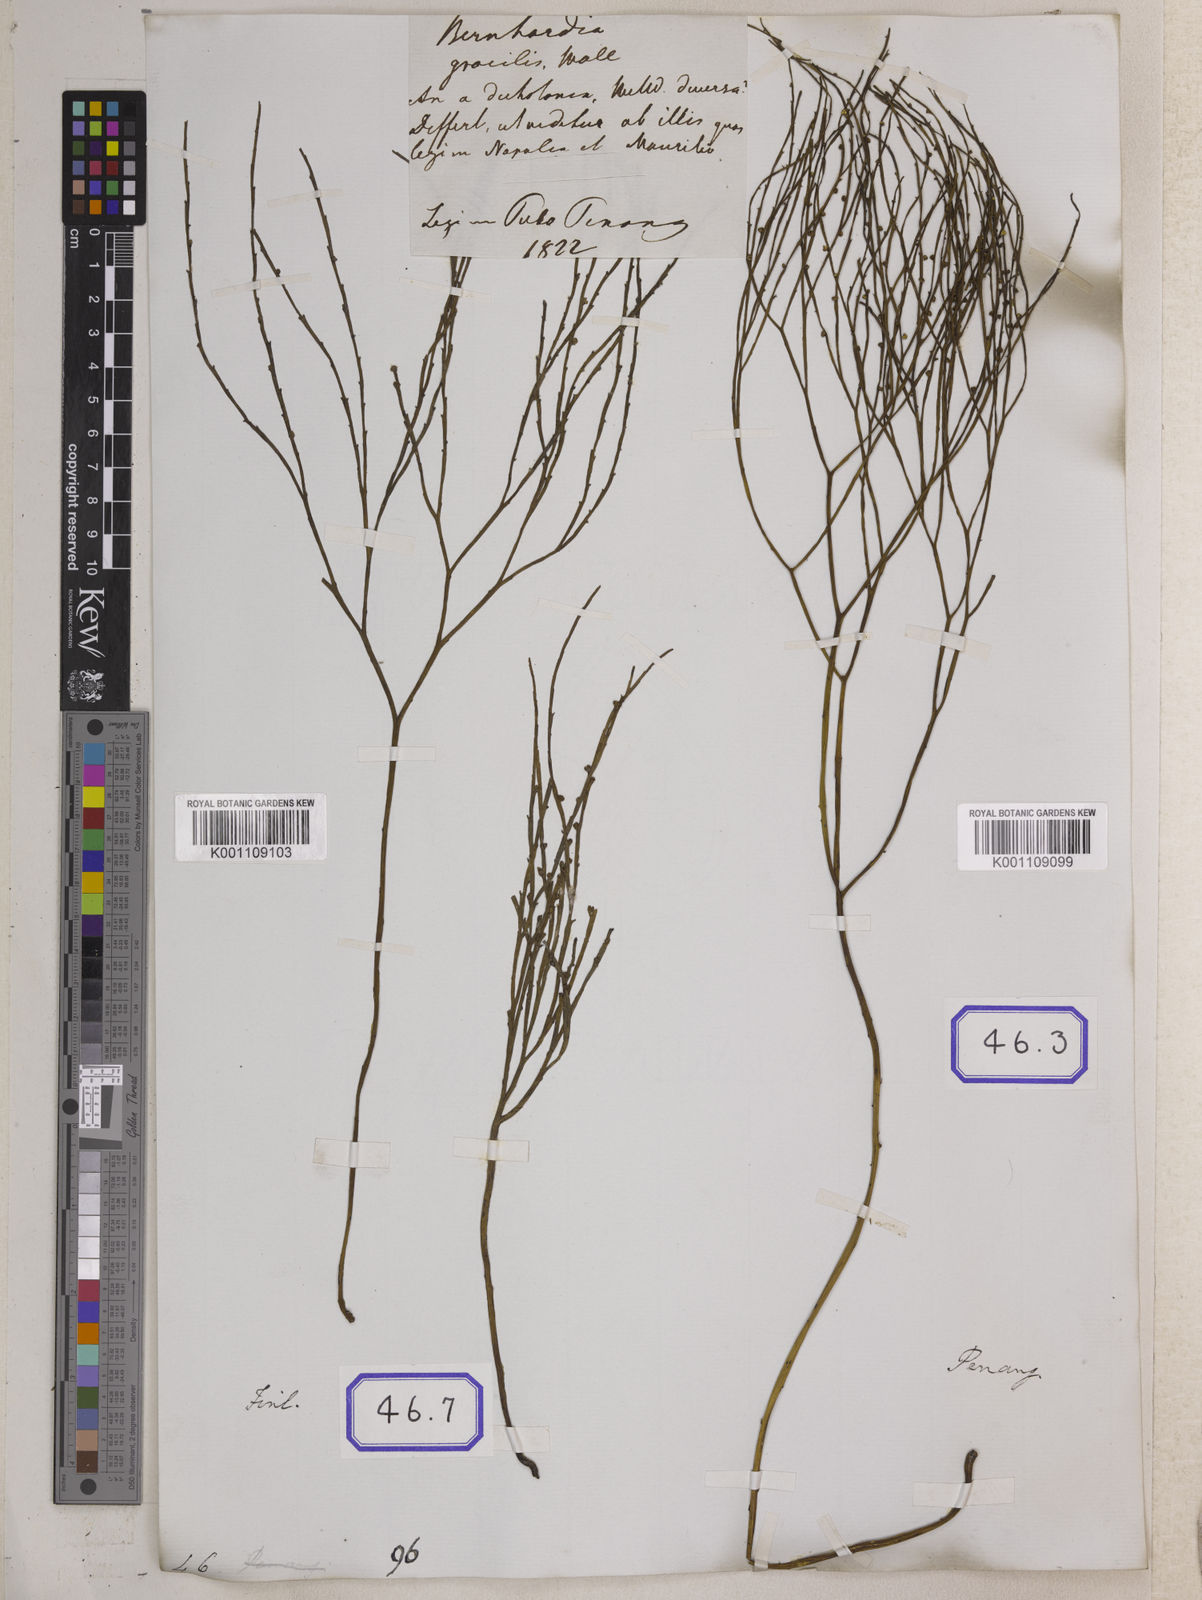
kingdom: Plantae
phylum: Tracheophyta
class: Polypodiopsida
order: Psilotales
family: Psilotaceae
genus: Psilotum
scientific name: Psilotum
